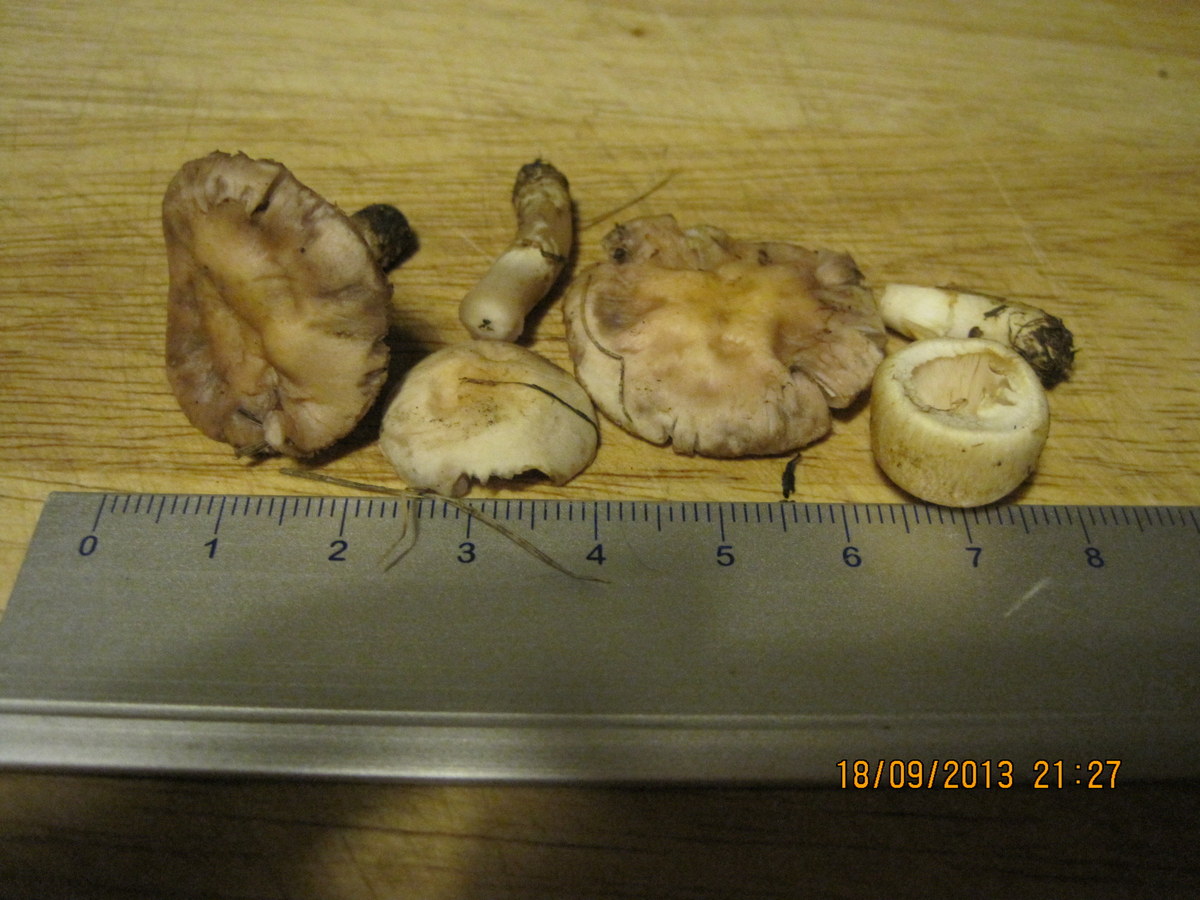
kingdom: Fungi
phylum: Basidiomycota
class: Agaricomycetes
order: Agaricales
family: Agaricaceae
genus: Agaricus
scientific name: Agaricus dulcidulus
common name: blegrød champignon
